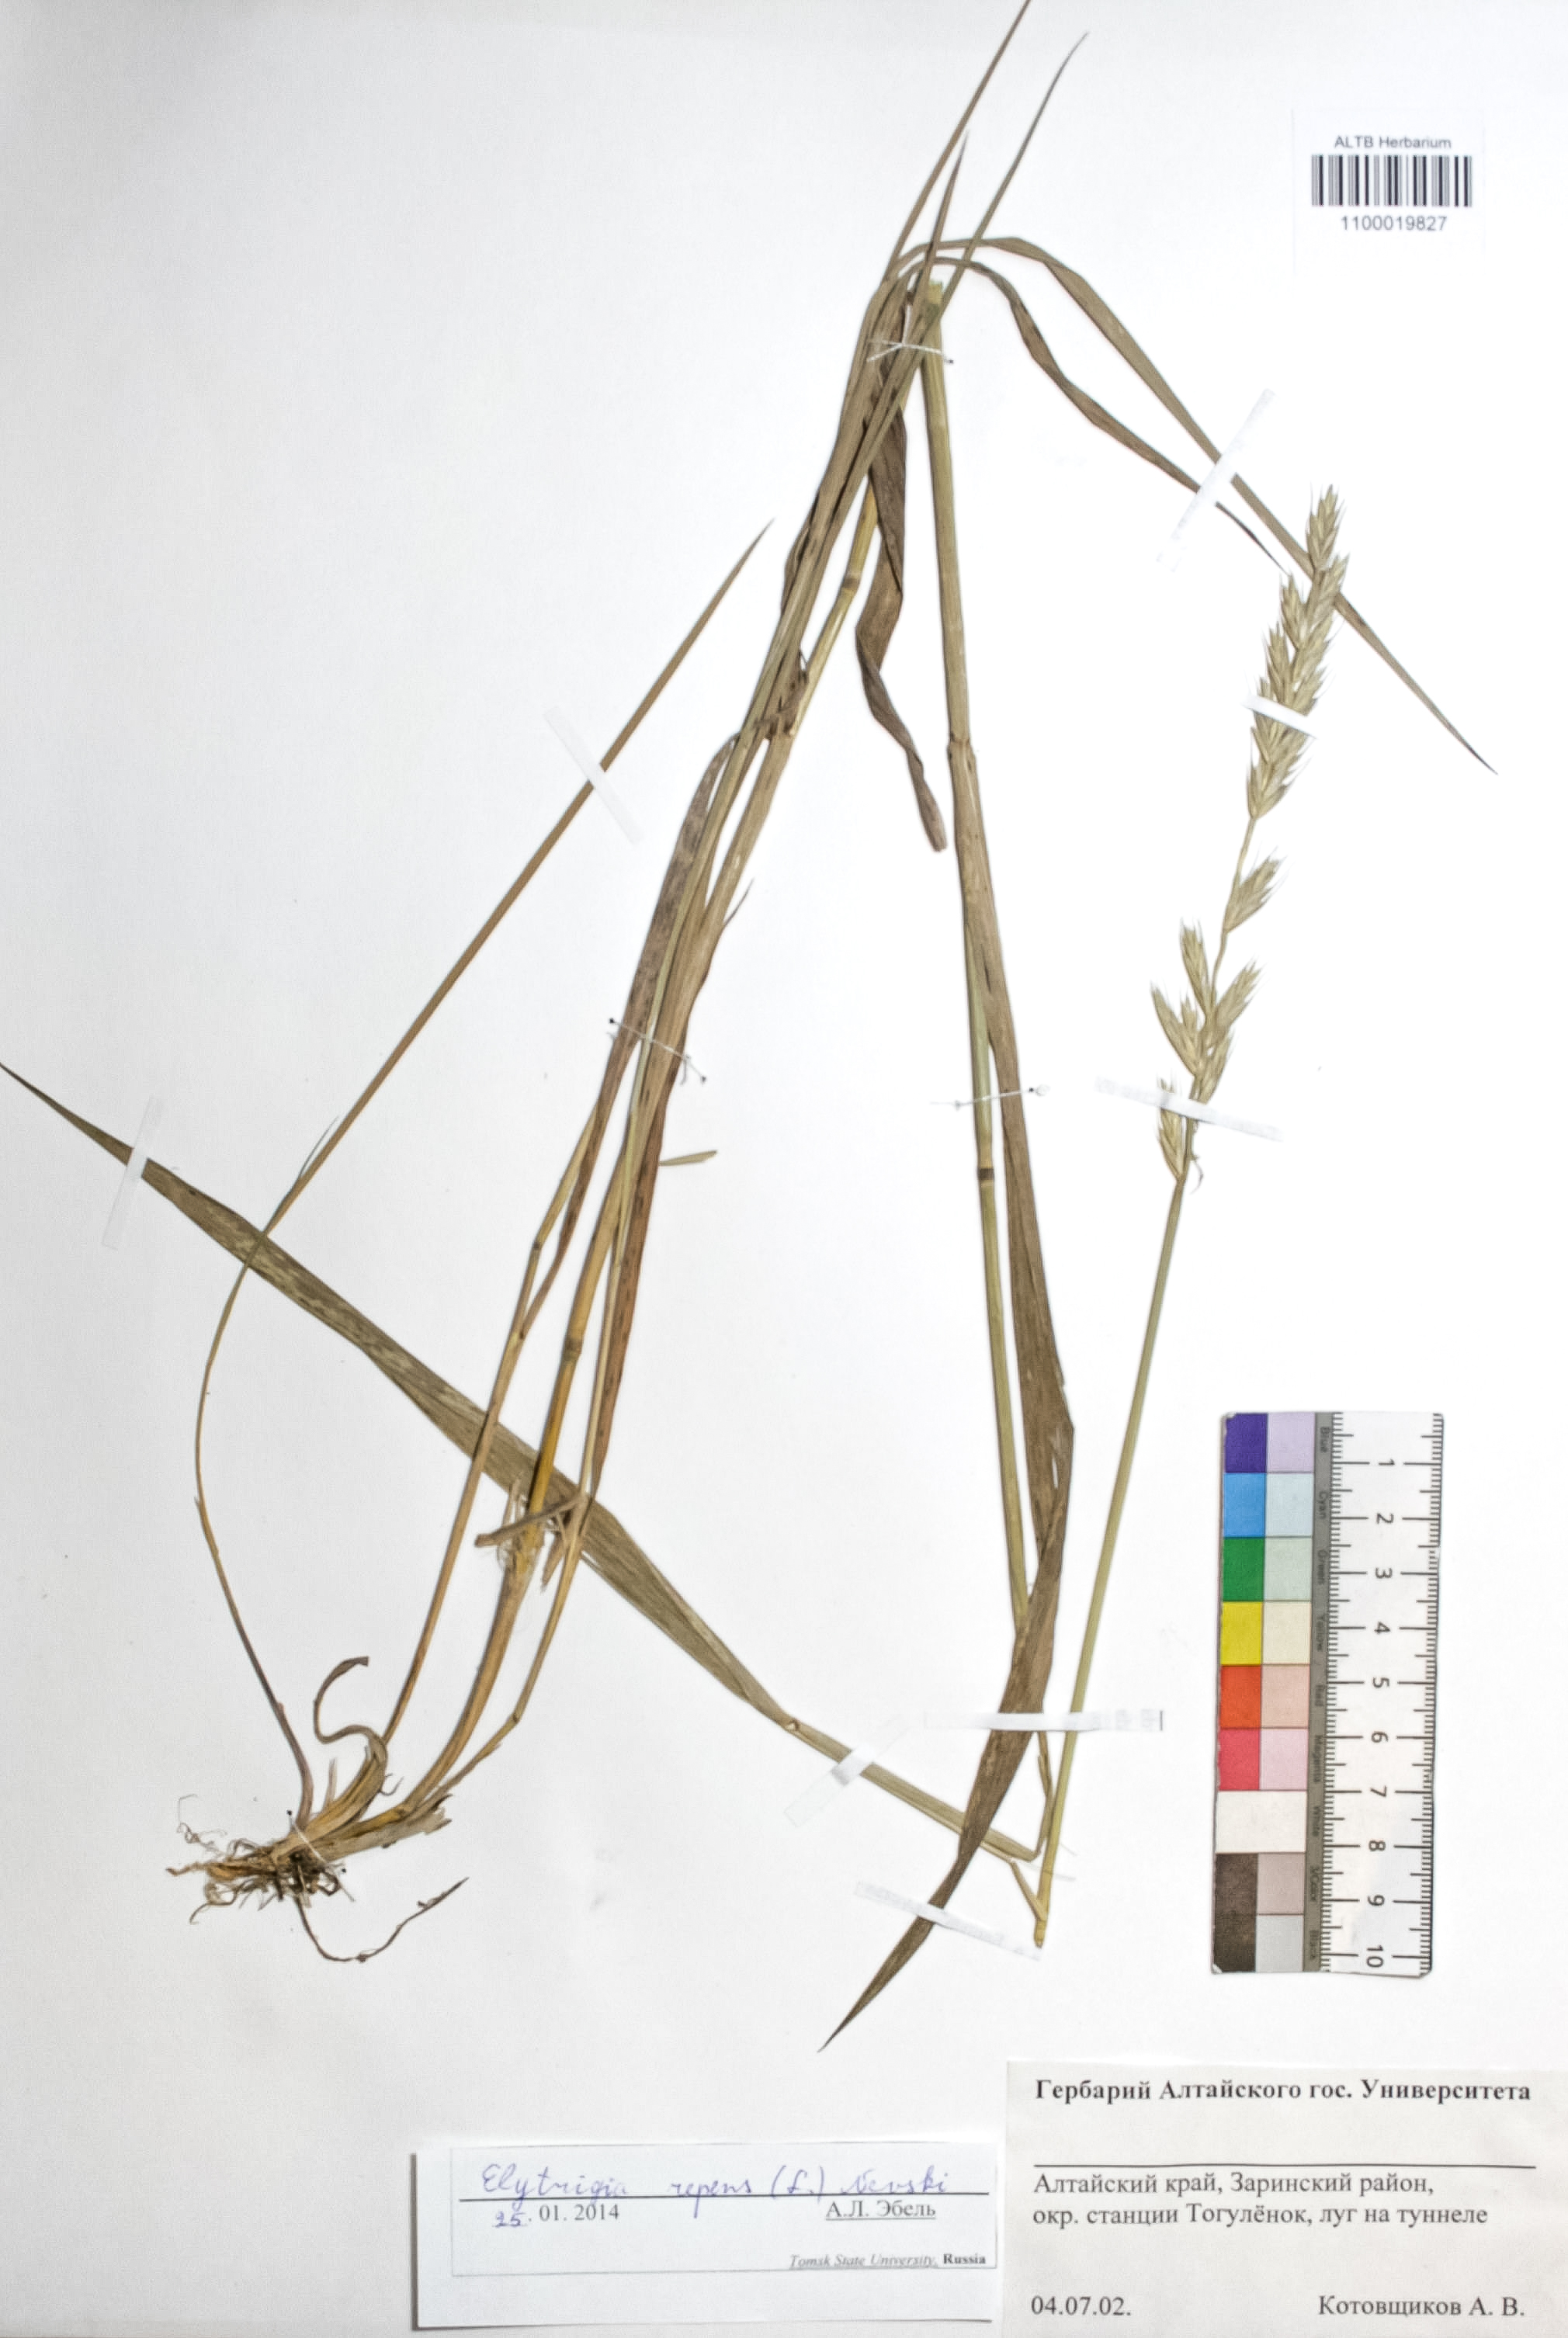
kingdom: Plantae
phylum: Tracheophyta
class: Liliopsida
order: Poales
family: Poaceae
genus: Elymus
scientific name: Elymus repens
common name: Quackgrass
